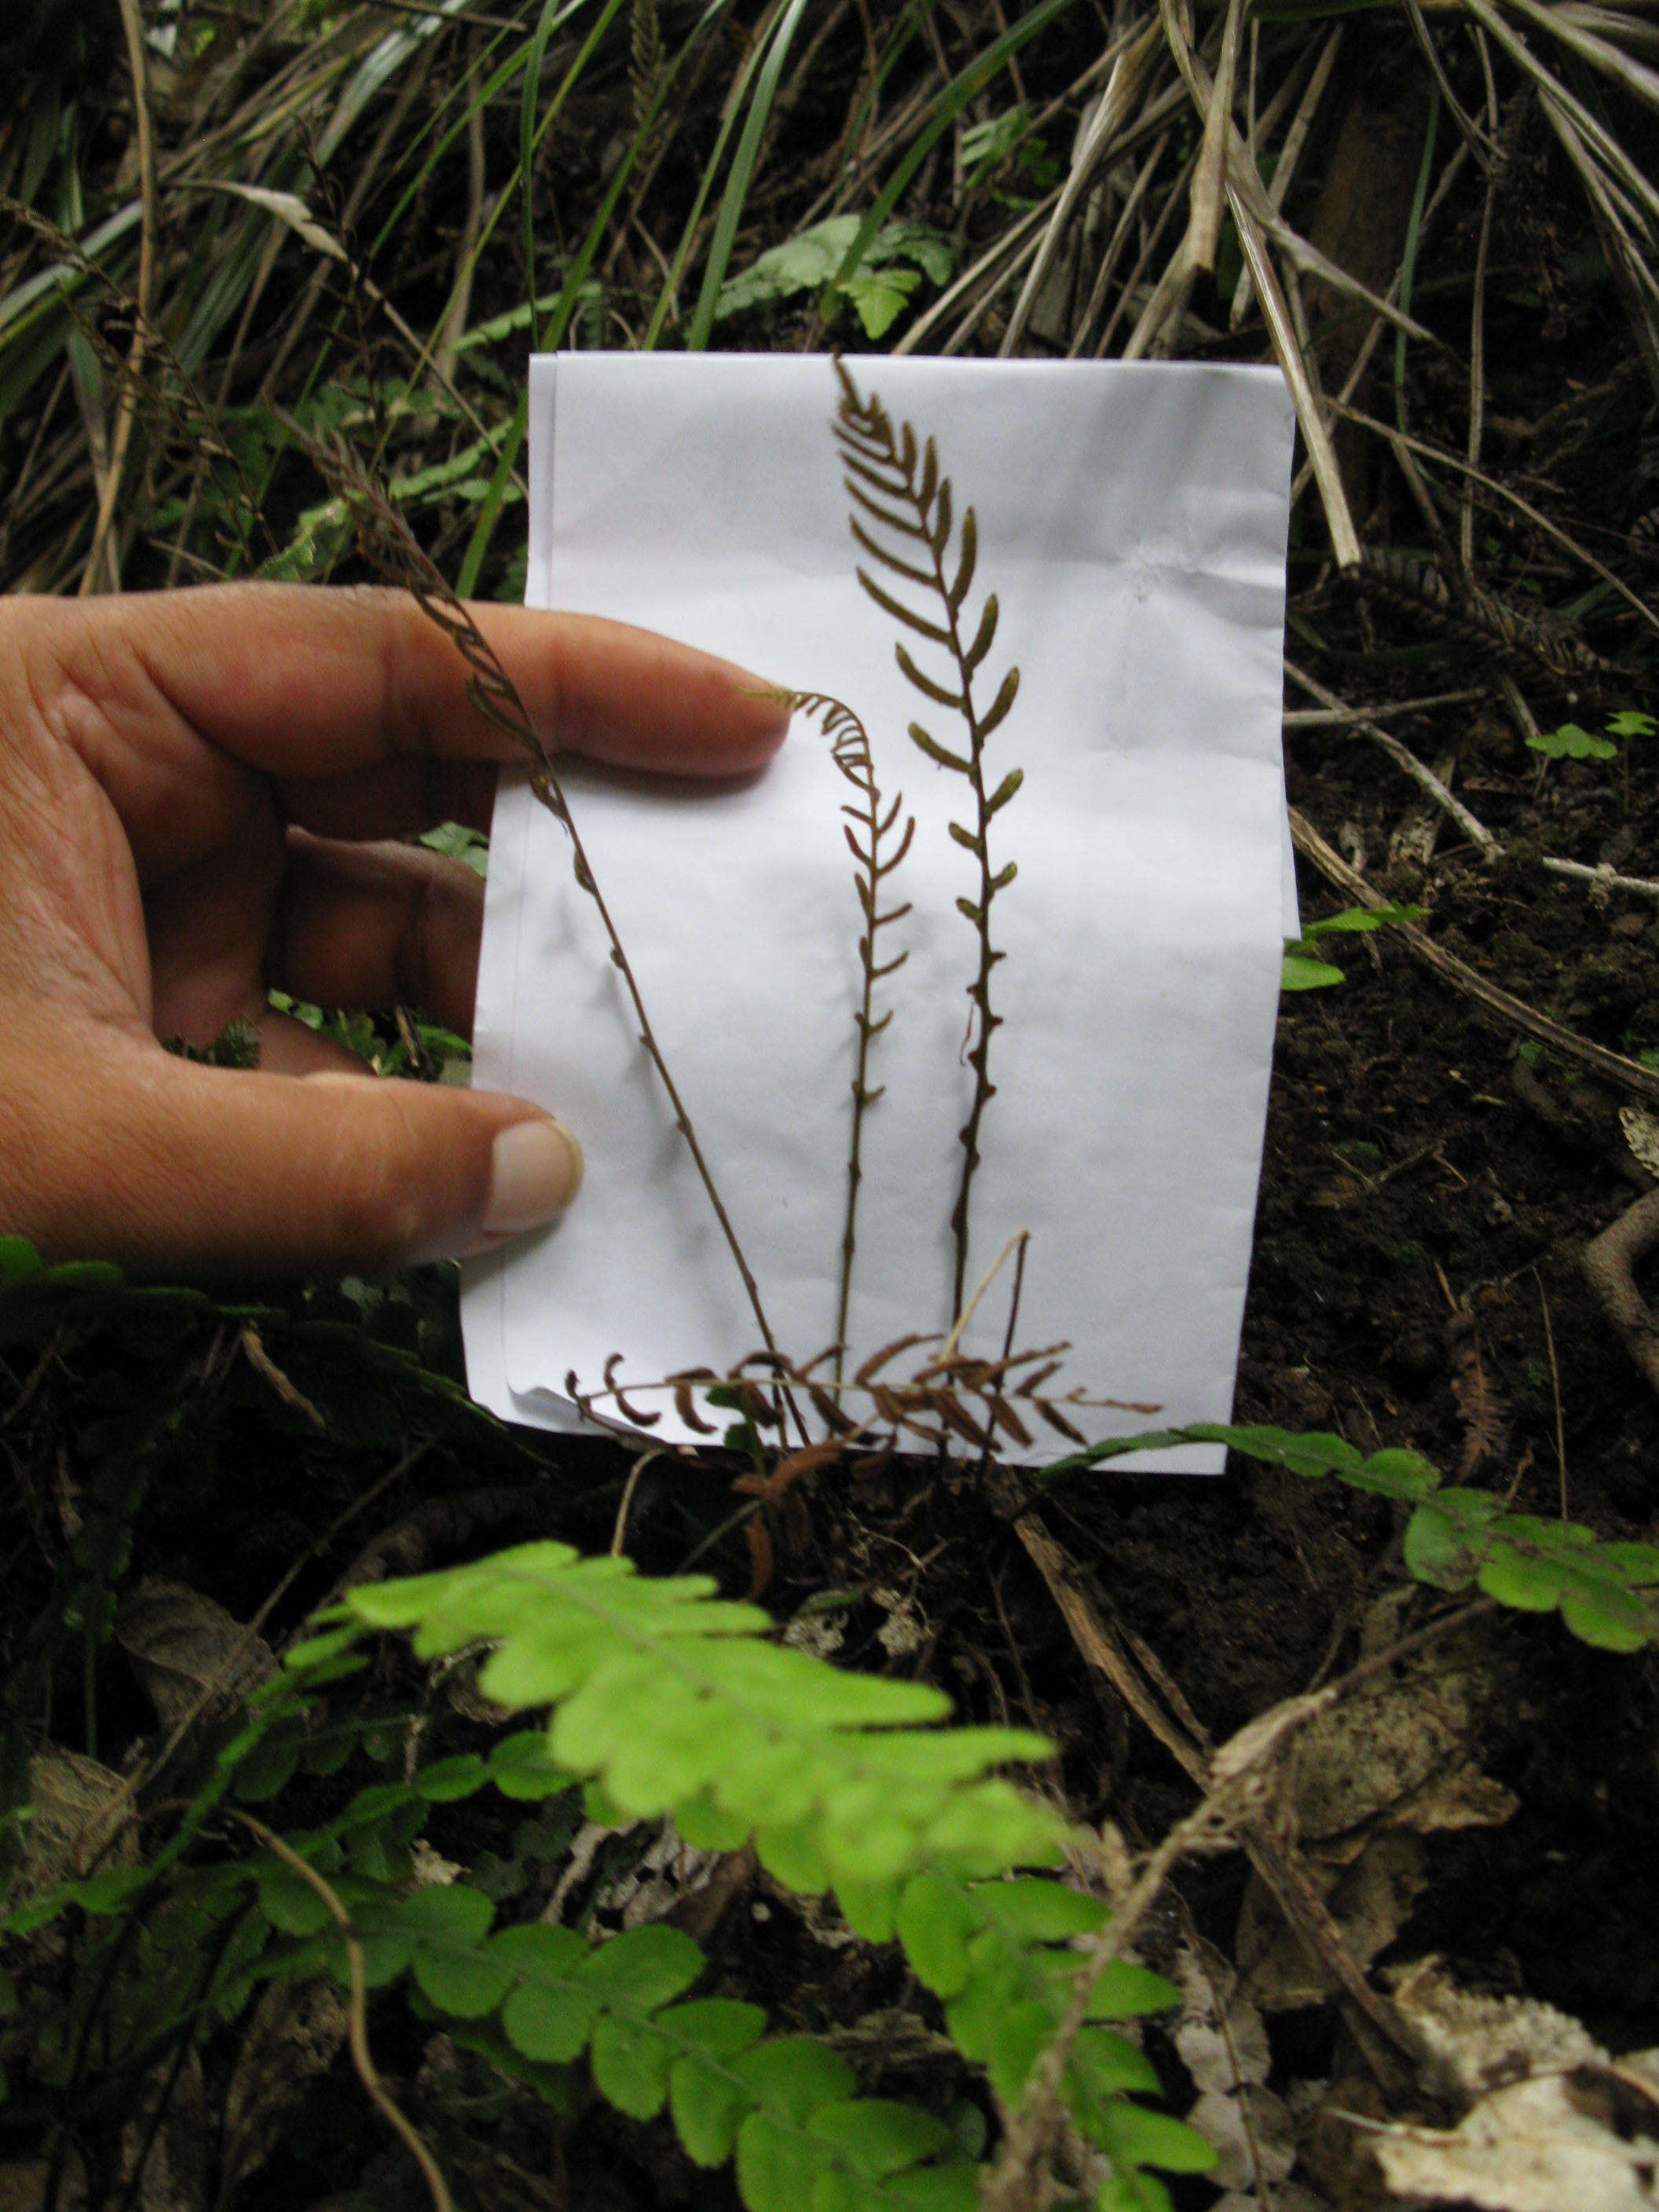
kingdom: Plantae
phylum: Tracheophyta
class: Polypodiopsida
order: Polypodiales
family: Blechnaceae
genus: Austroblechnum
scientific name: Austroblechnum leyboldtianum
